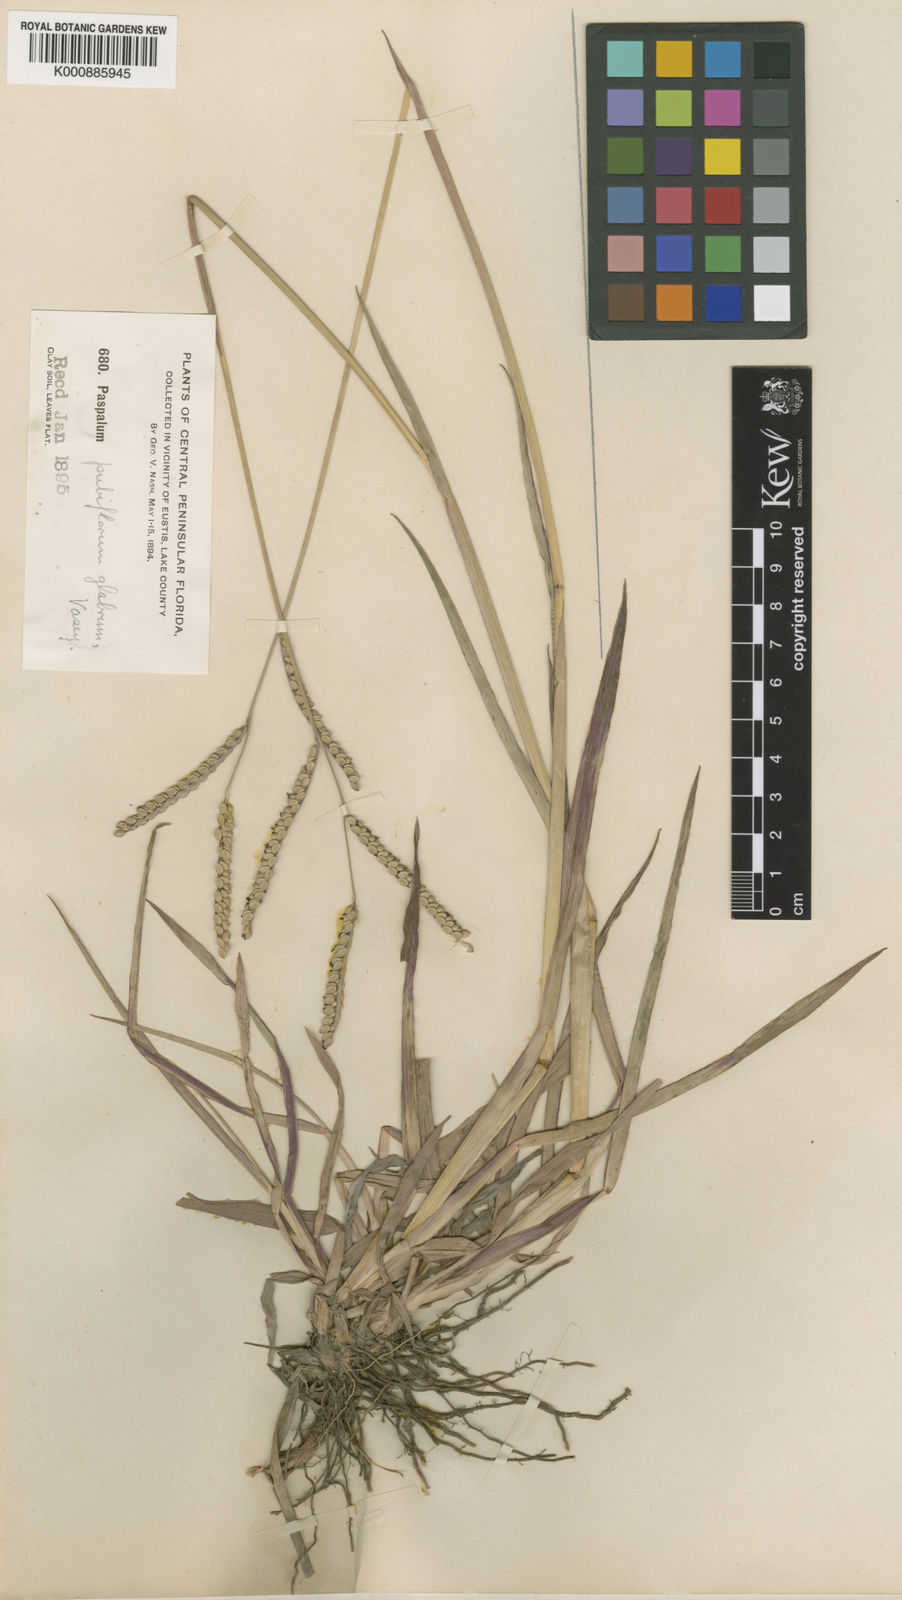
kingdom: Plantae
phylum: Tracheophyta
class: Liliopsida
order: Poales
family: Poaceae
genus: Paspalum
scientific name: Paspalum
